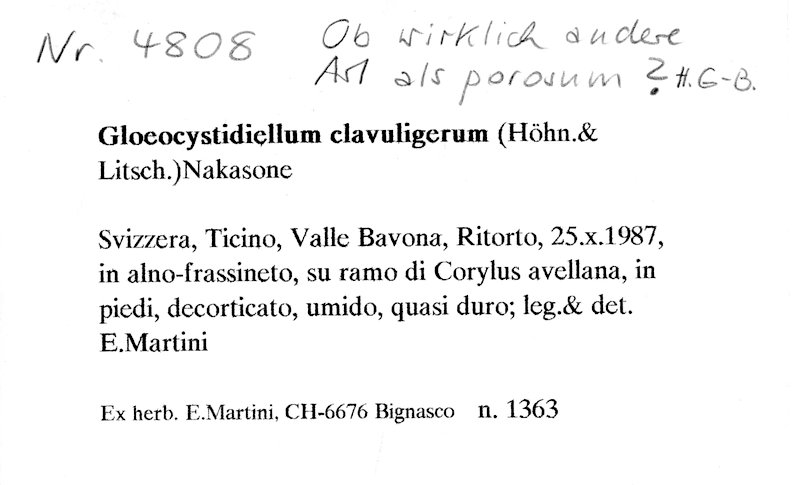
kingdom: Plantae
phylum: Tracheophyta
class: Magnoliopsida
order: Fagales
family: Betulaceae
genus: Corylus
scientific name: Corylus avellana
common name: European hazel
